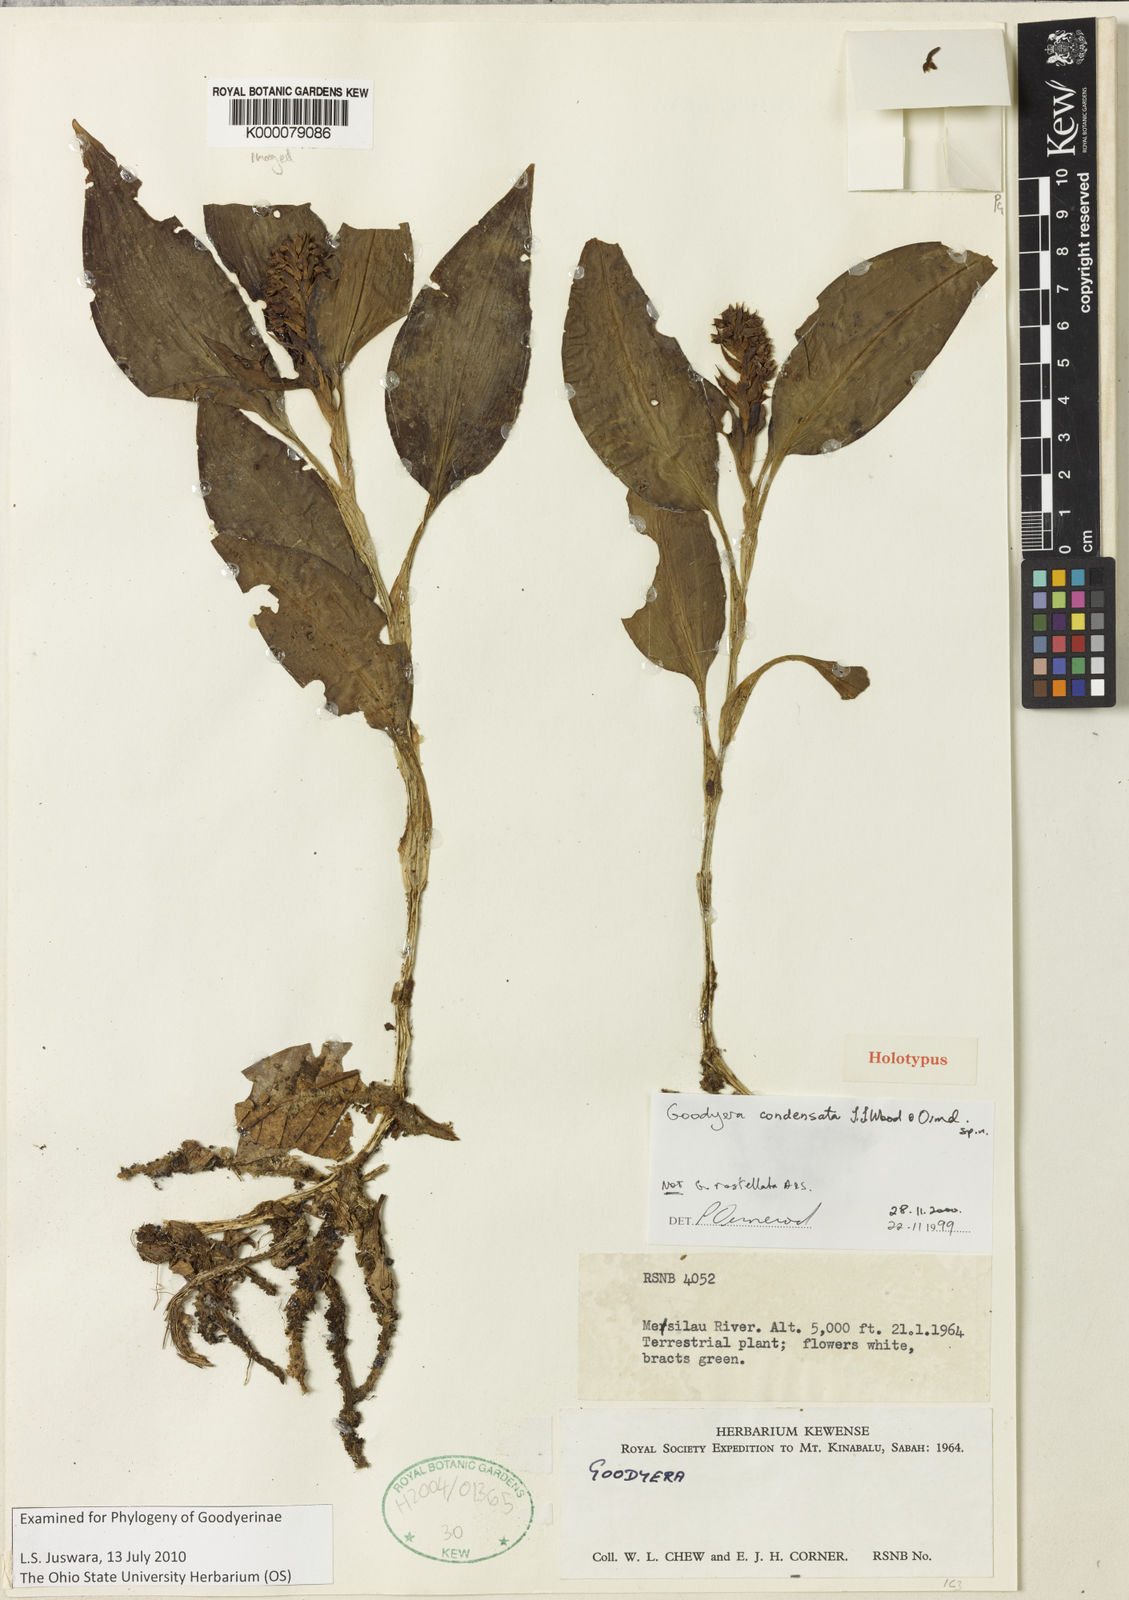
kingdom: Plantae
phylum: Tracheophyta
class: Liliopsida
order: Asparagales
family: Orchidaceae
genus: Goodyera
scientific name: Goodyera condensata
